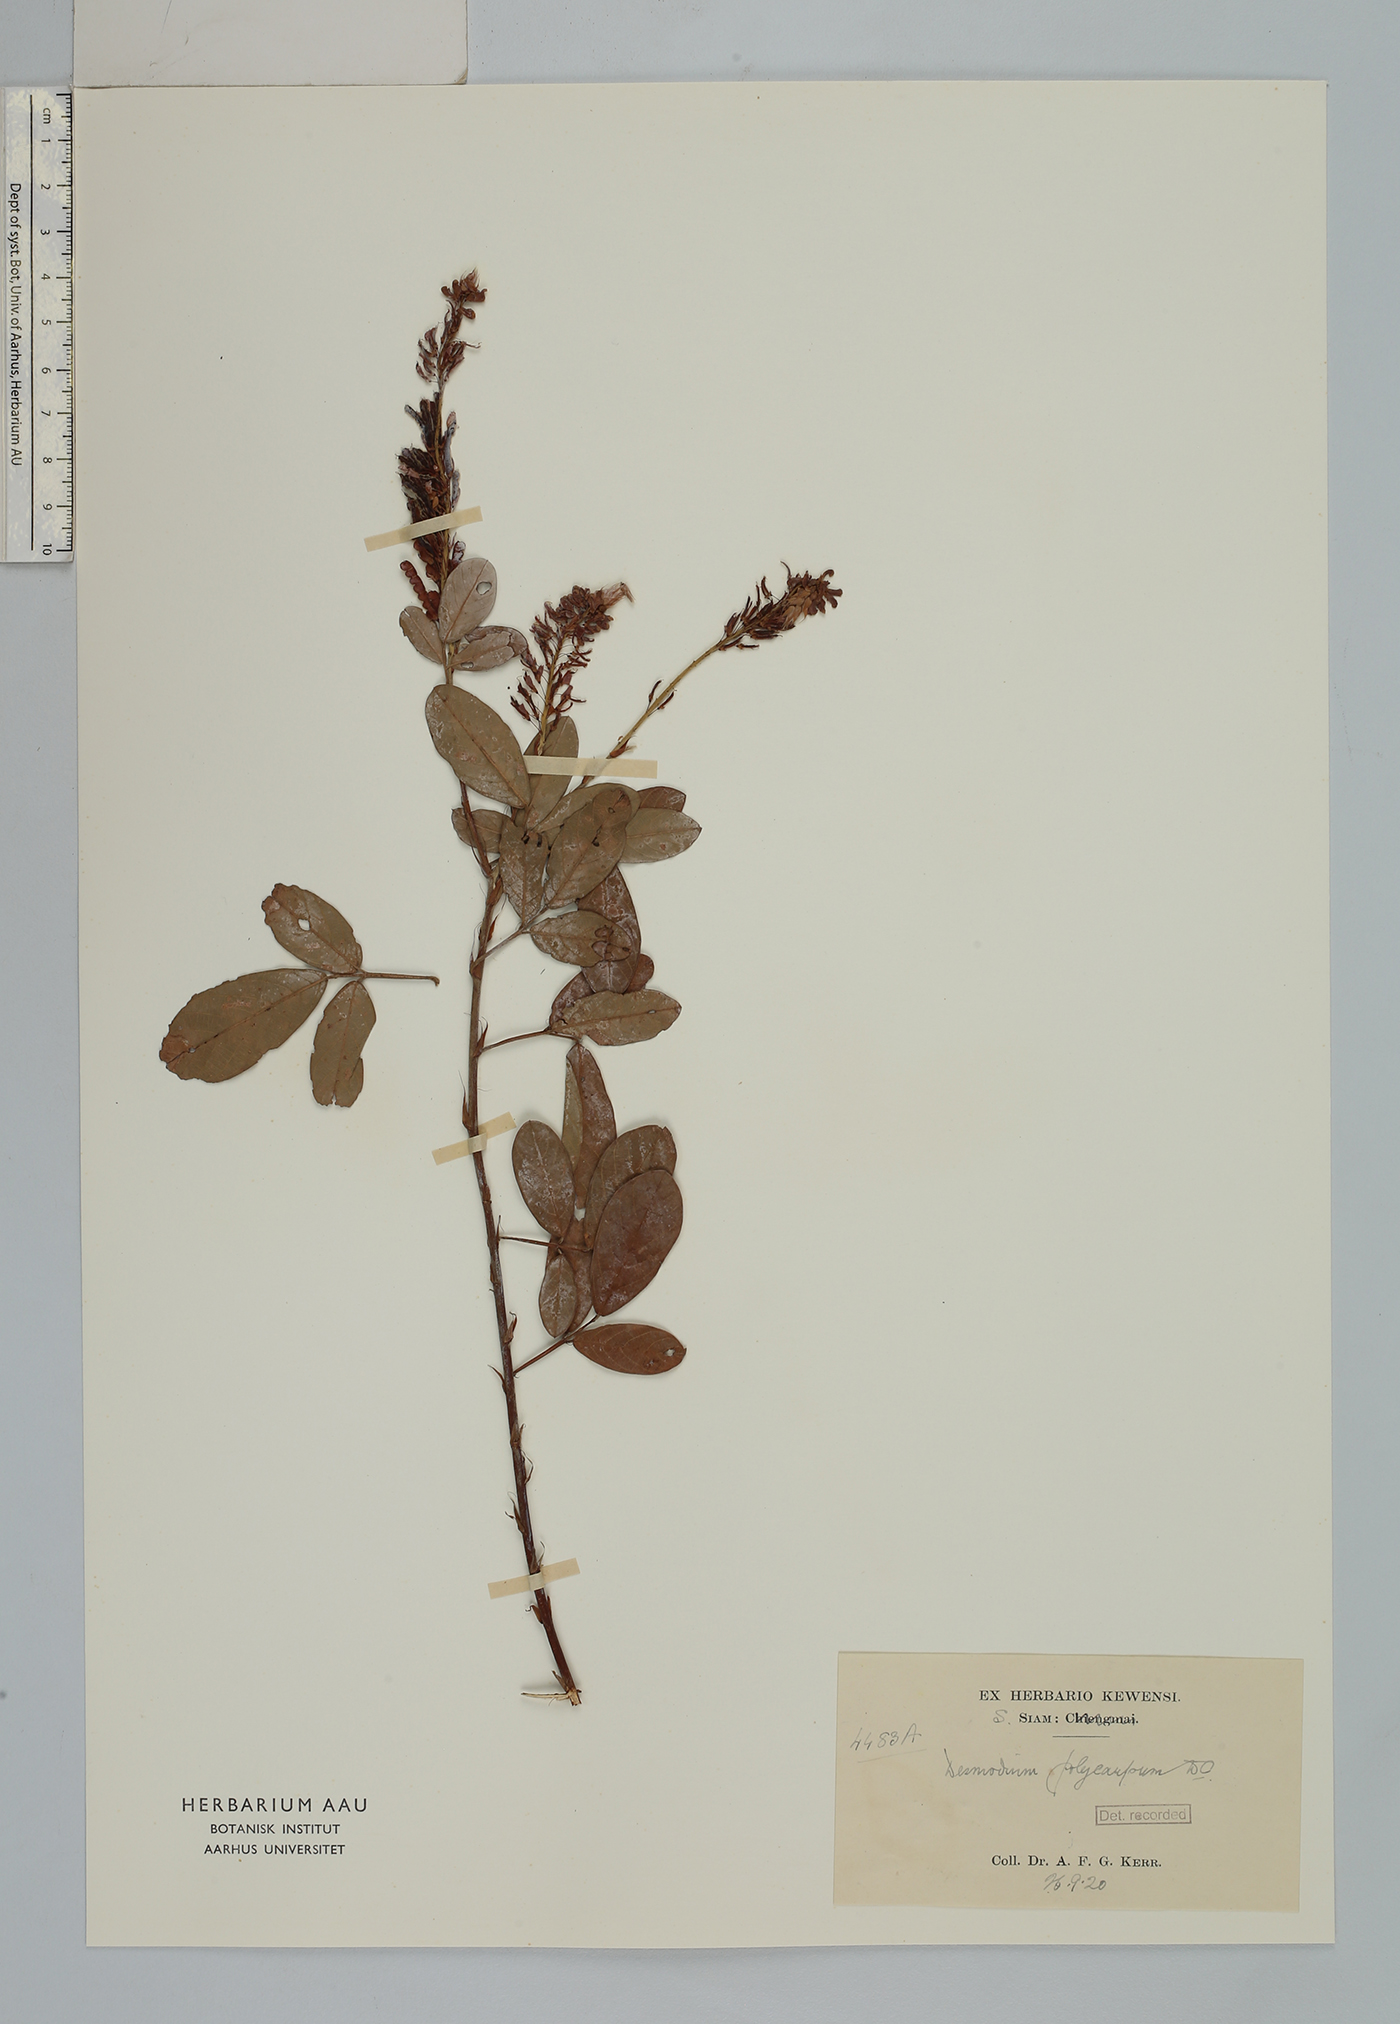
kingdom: Plantae
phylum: Tracheophyta
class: Magnoliopsida
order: Fabales
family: Fabaceae
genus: Grona
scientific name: Grona heterocarpos
